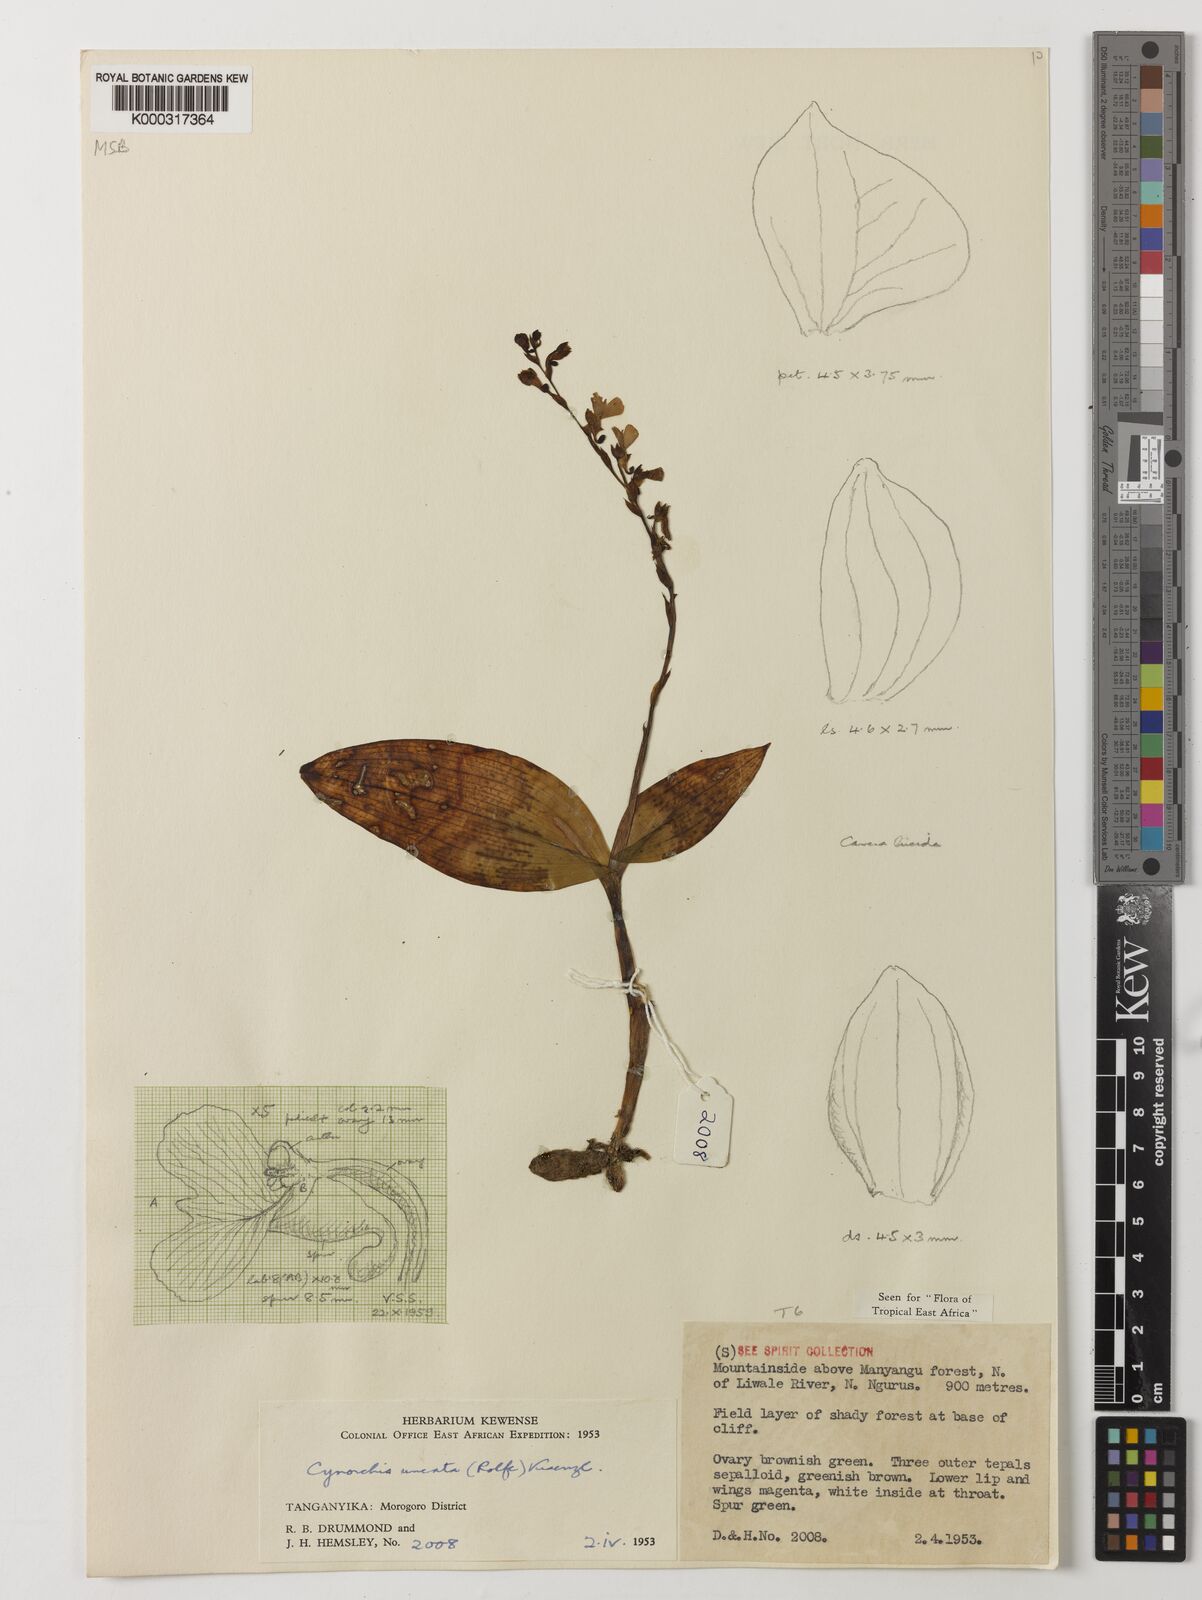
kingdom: Plantae
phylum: Tracheophyta
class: Liliopsida
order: Asparagales
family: Orchidaceae
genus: Cynorkis
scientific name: Cynorkis uncata
